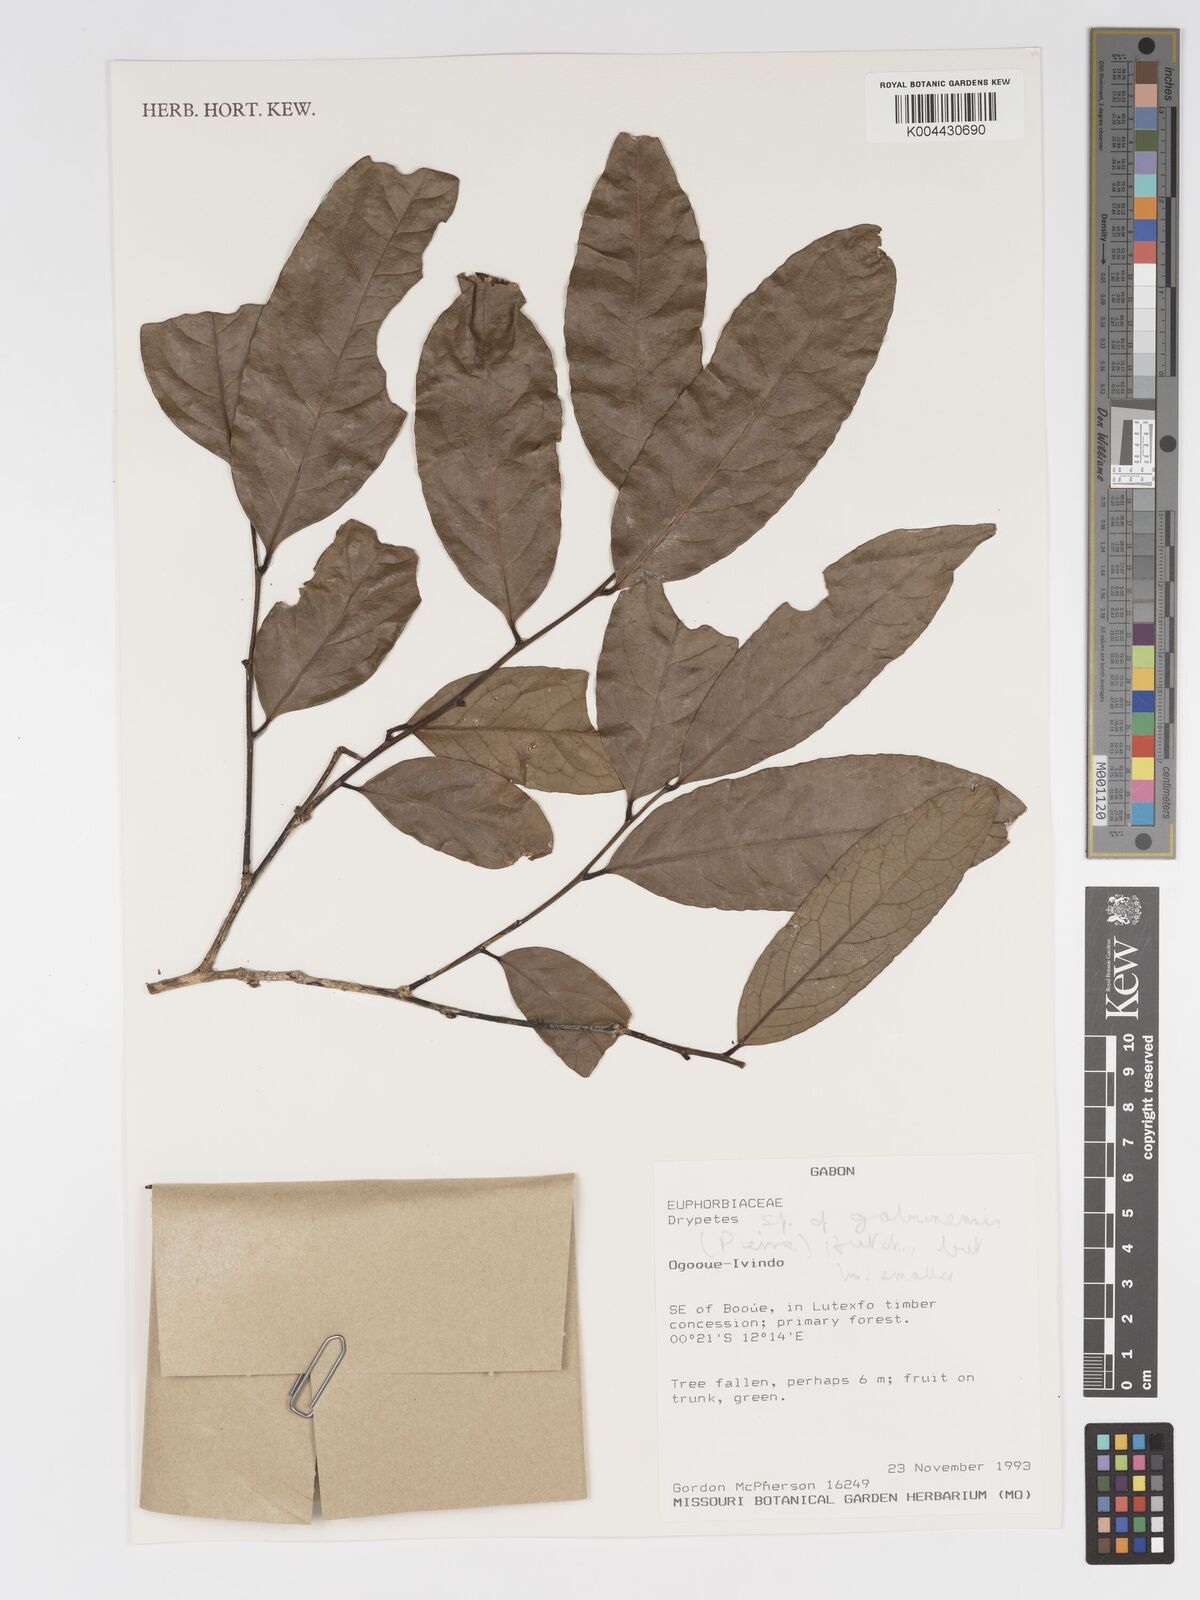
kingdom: Plantae
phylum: Tracheophyta
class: Magnoliopsida
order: Malpighiales
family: Putranjivaceae
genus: Drypetes
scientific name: Drypetes gabonensis
